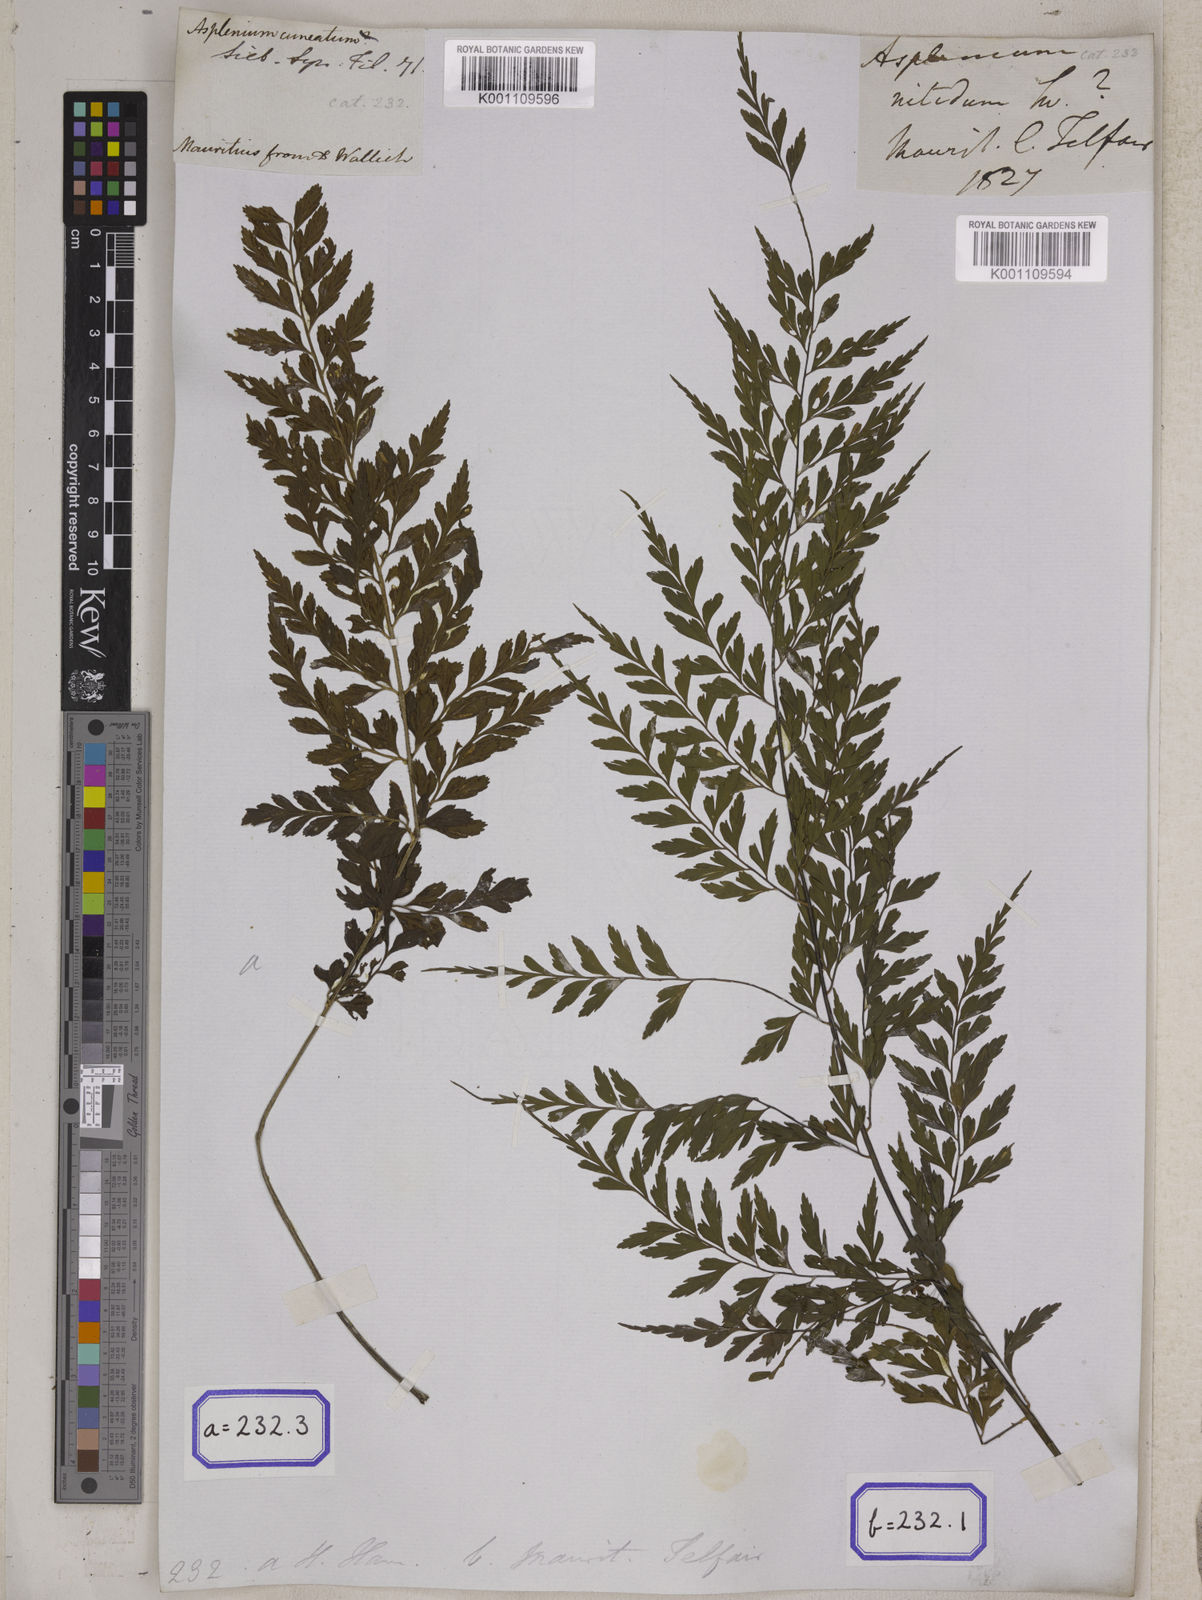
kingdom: Plantae
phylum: Tracheophyta
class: Polypodiopsida
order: Polypodiales
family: Aspleniaceae
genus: Asplenium
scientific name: Asplenium nitidum
